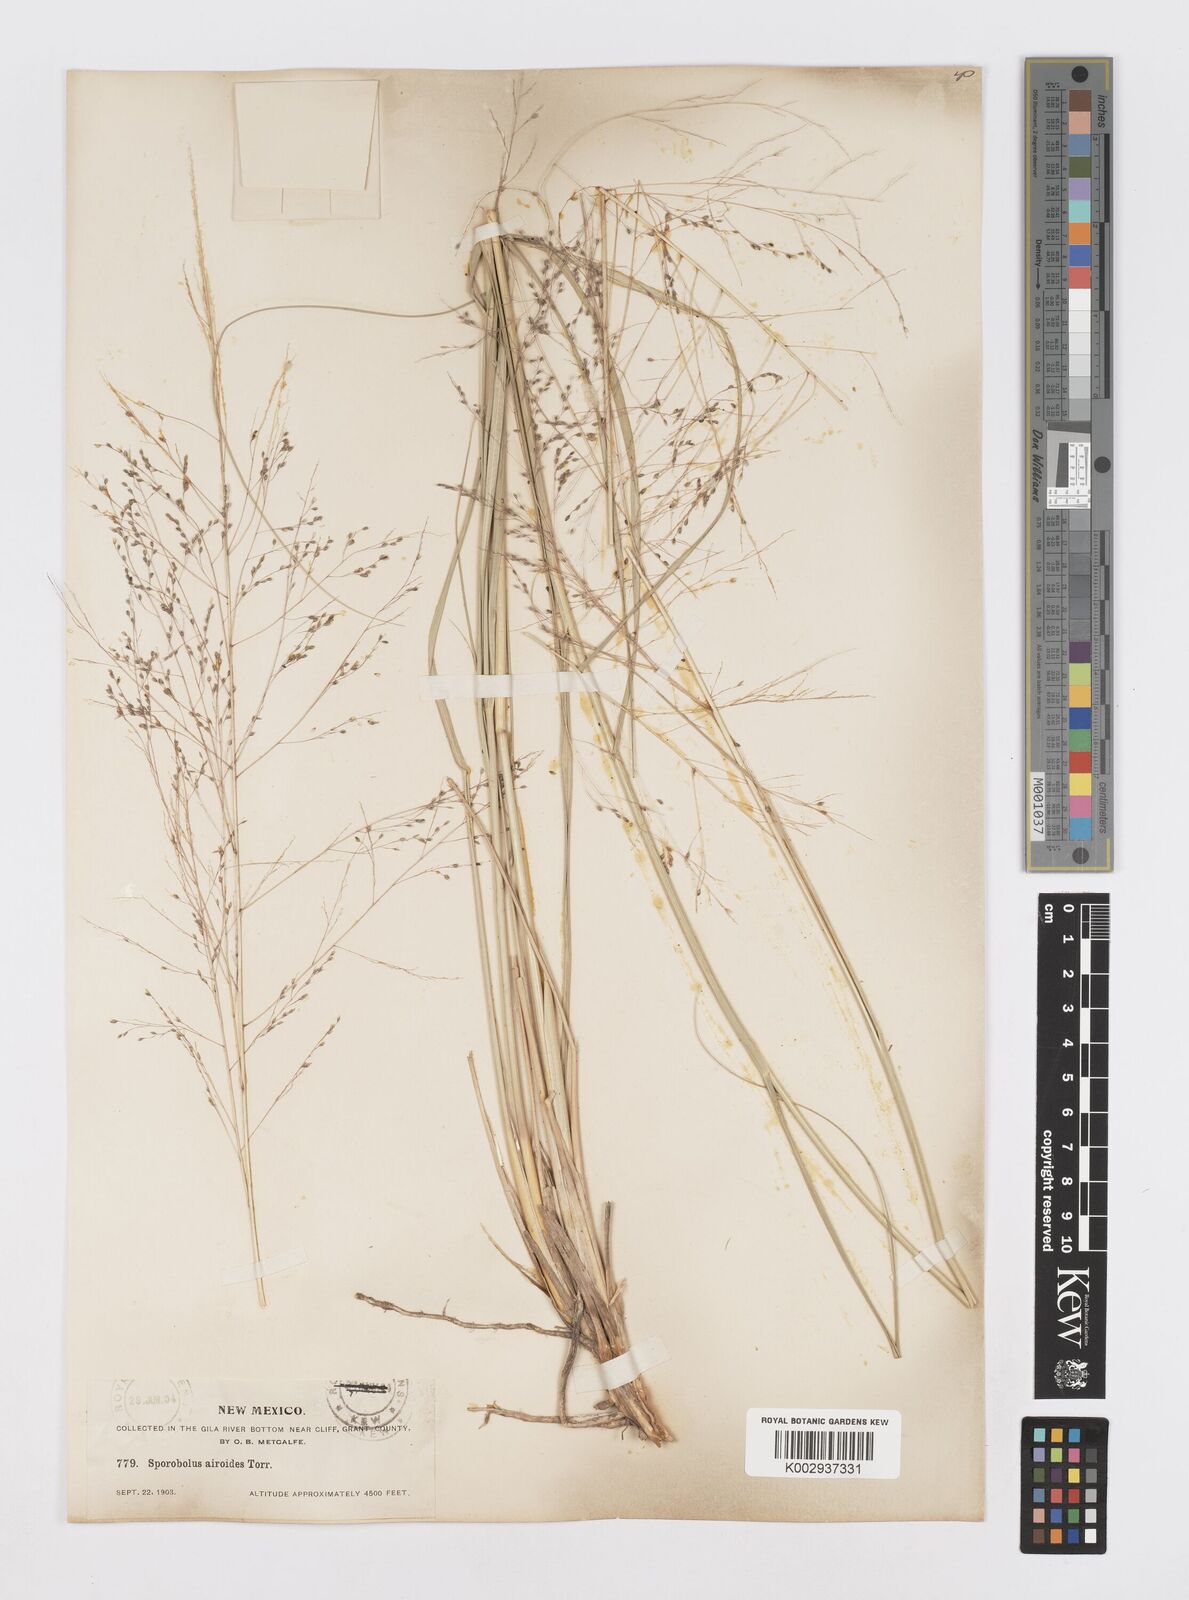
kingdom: Plantae
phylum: Tracheophyta
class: Liliopsida
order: Poales
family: Poaceae
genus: Sporobolus
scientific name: Sporobolus airoides
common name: Alkali sacaton
